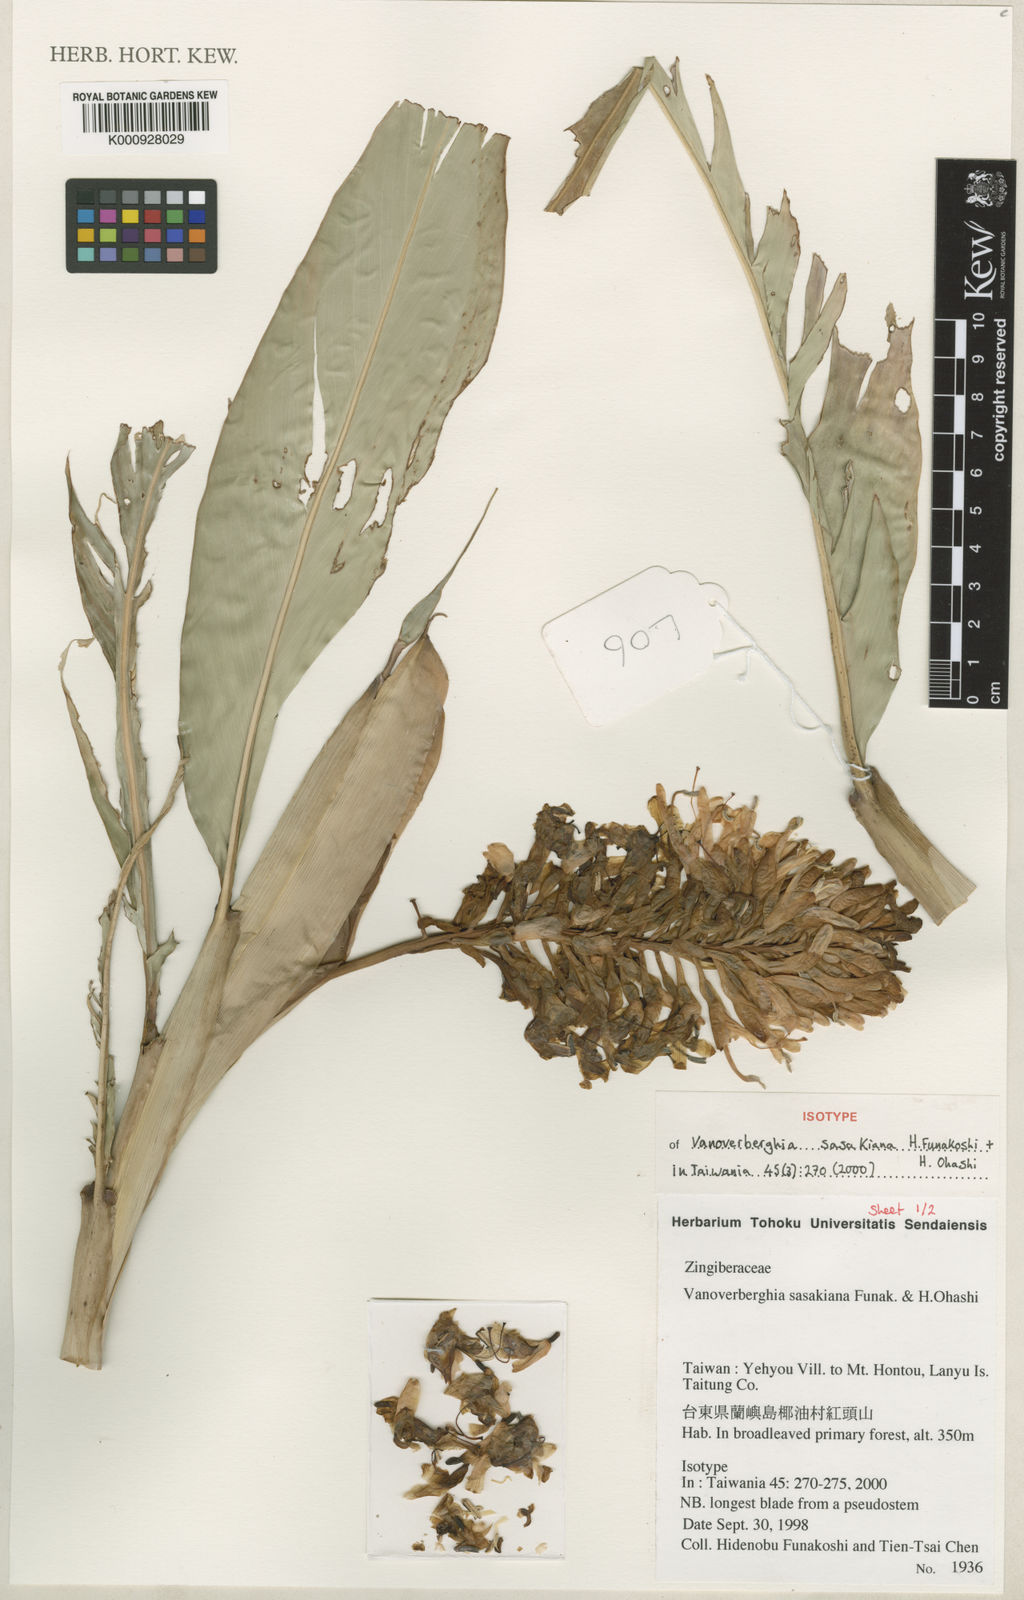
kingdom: Plantae
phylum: Tracheophyta
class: Liliopsida
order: Zingiberales
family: Zingiberaceae
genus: Vanoverberghia
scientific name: Vanoverberghia sasakiana
